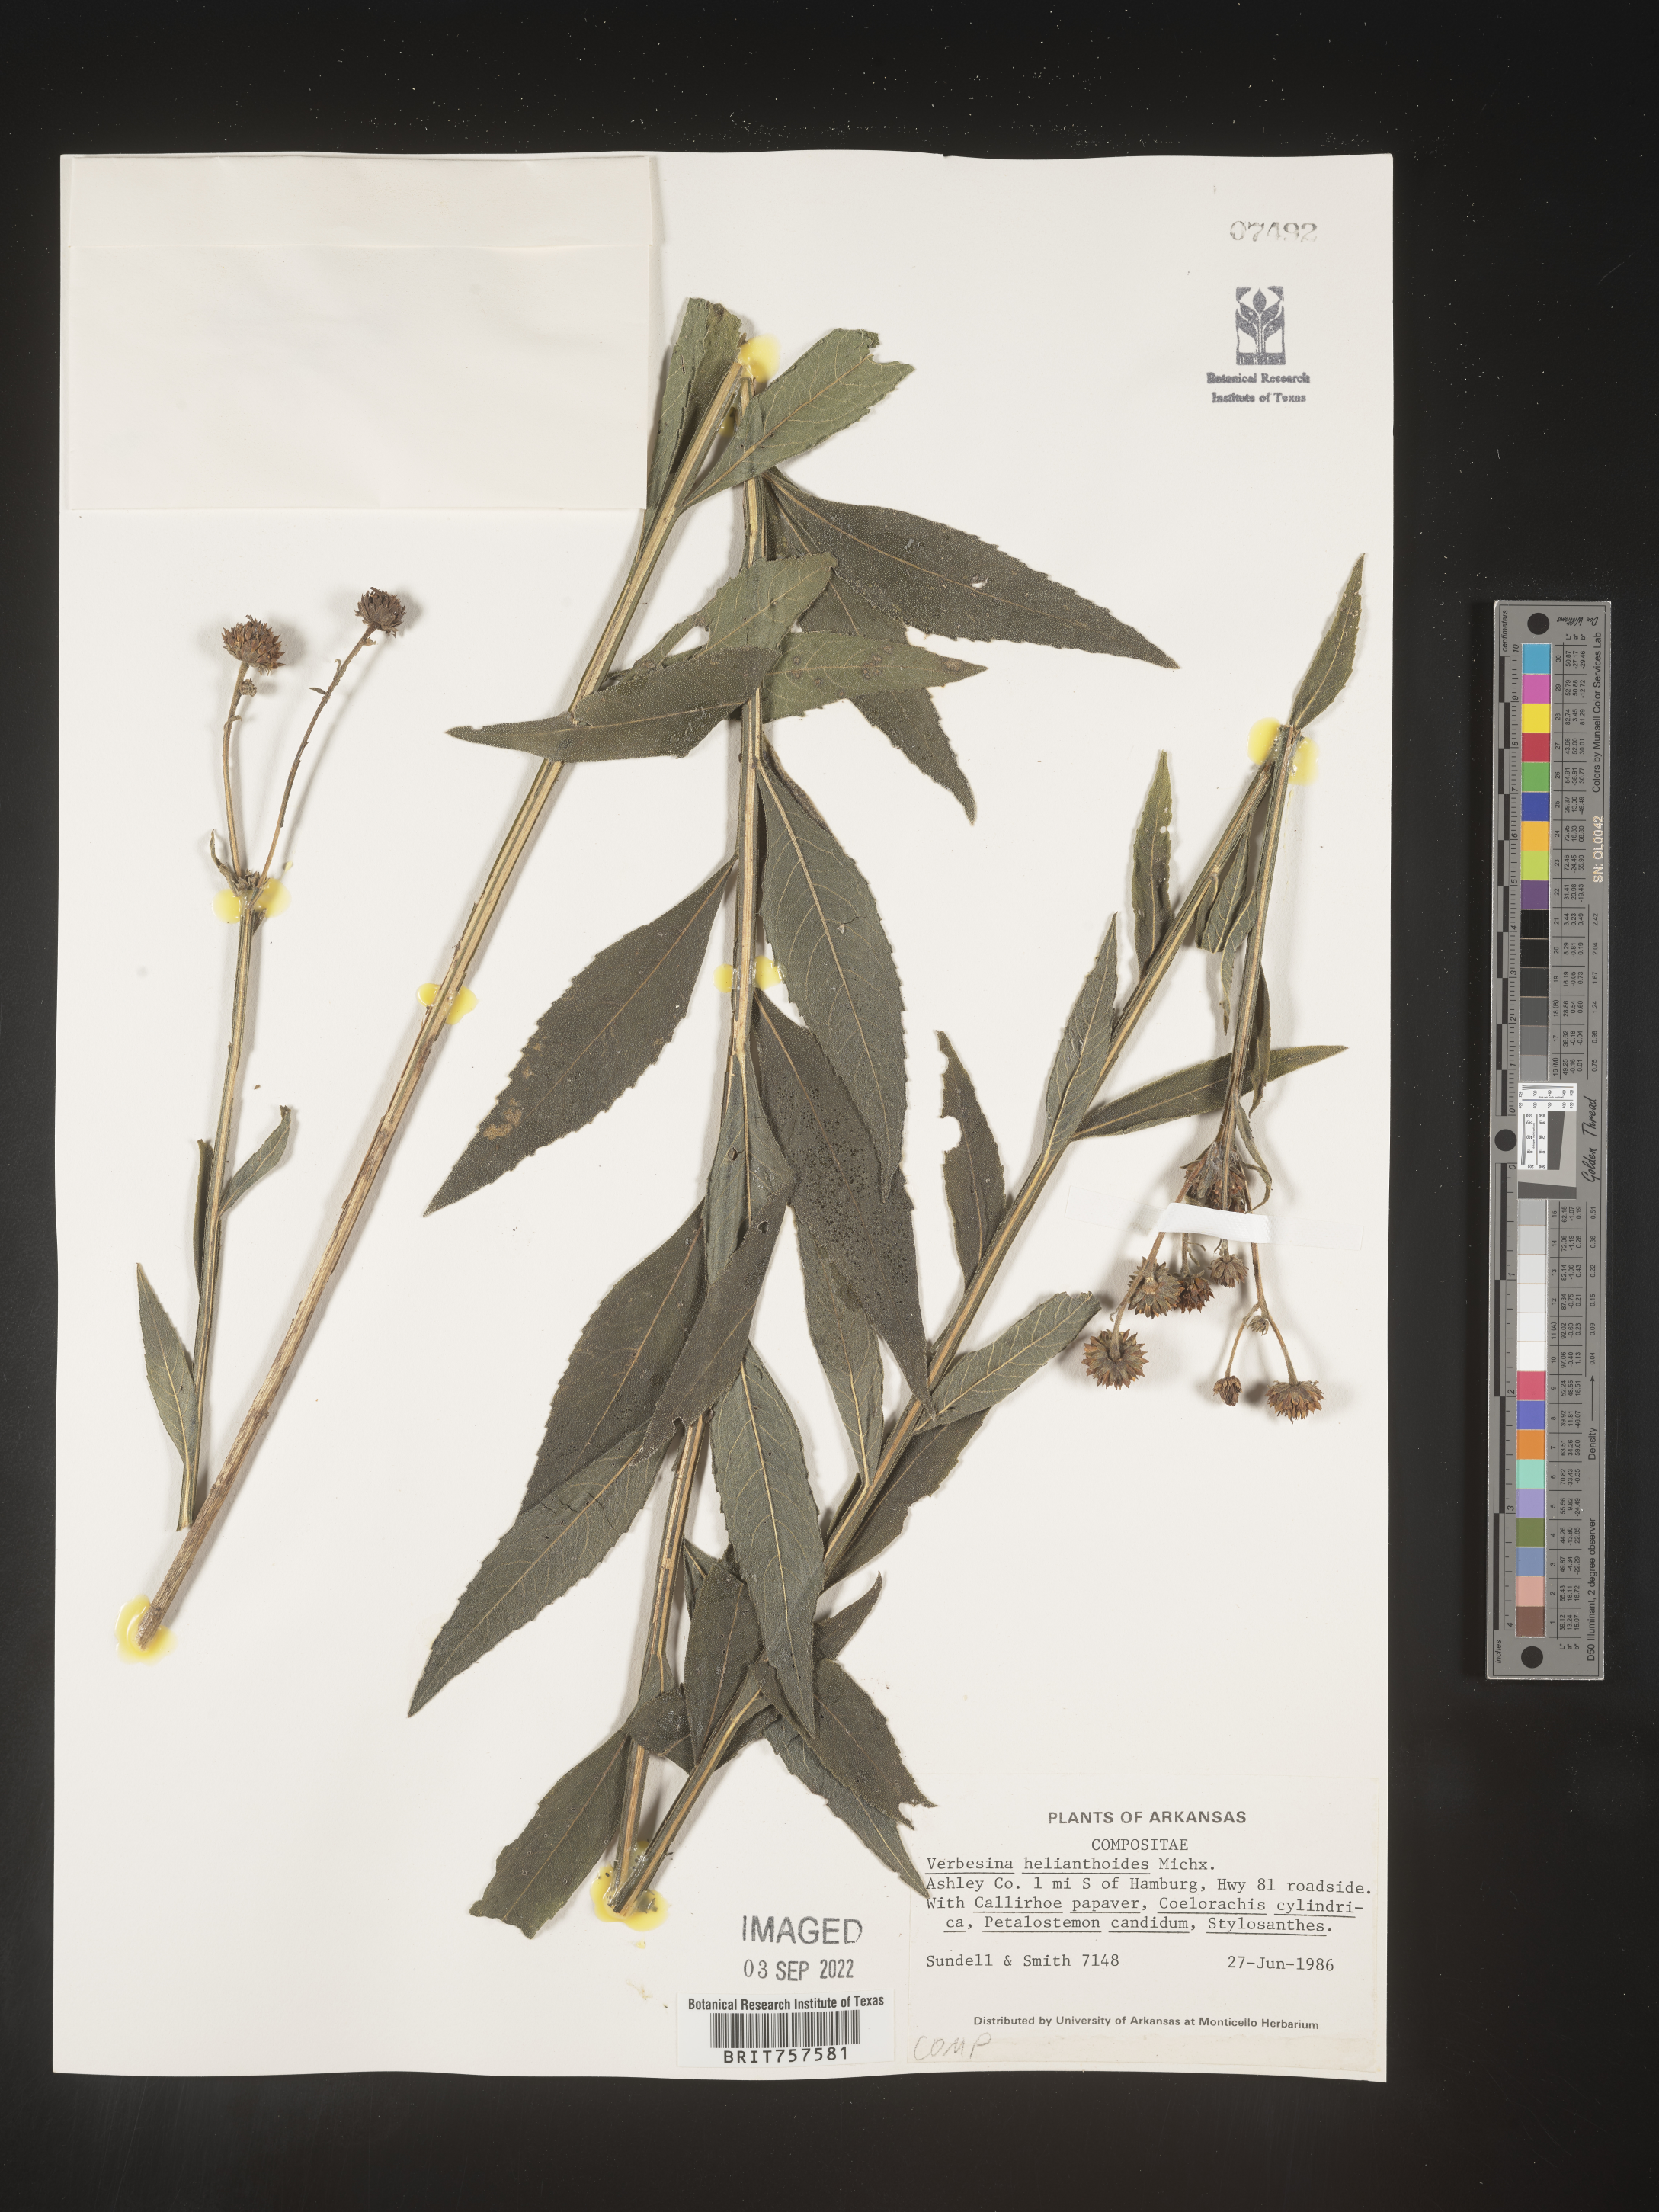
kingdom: Plantae
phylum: Tracheophyta
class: Magnoliopsida
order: Asterales
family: Asteraceae
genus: Verbesina
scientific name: Verbesina helianthoides
